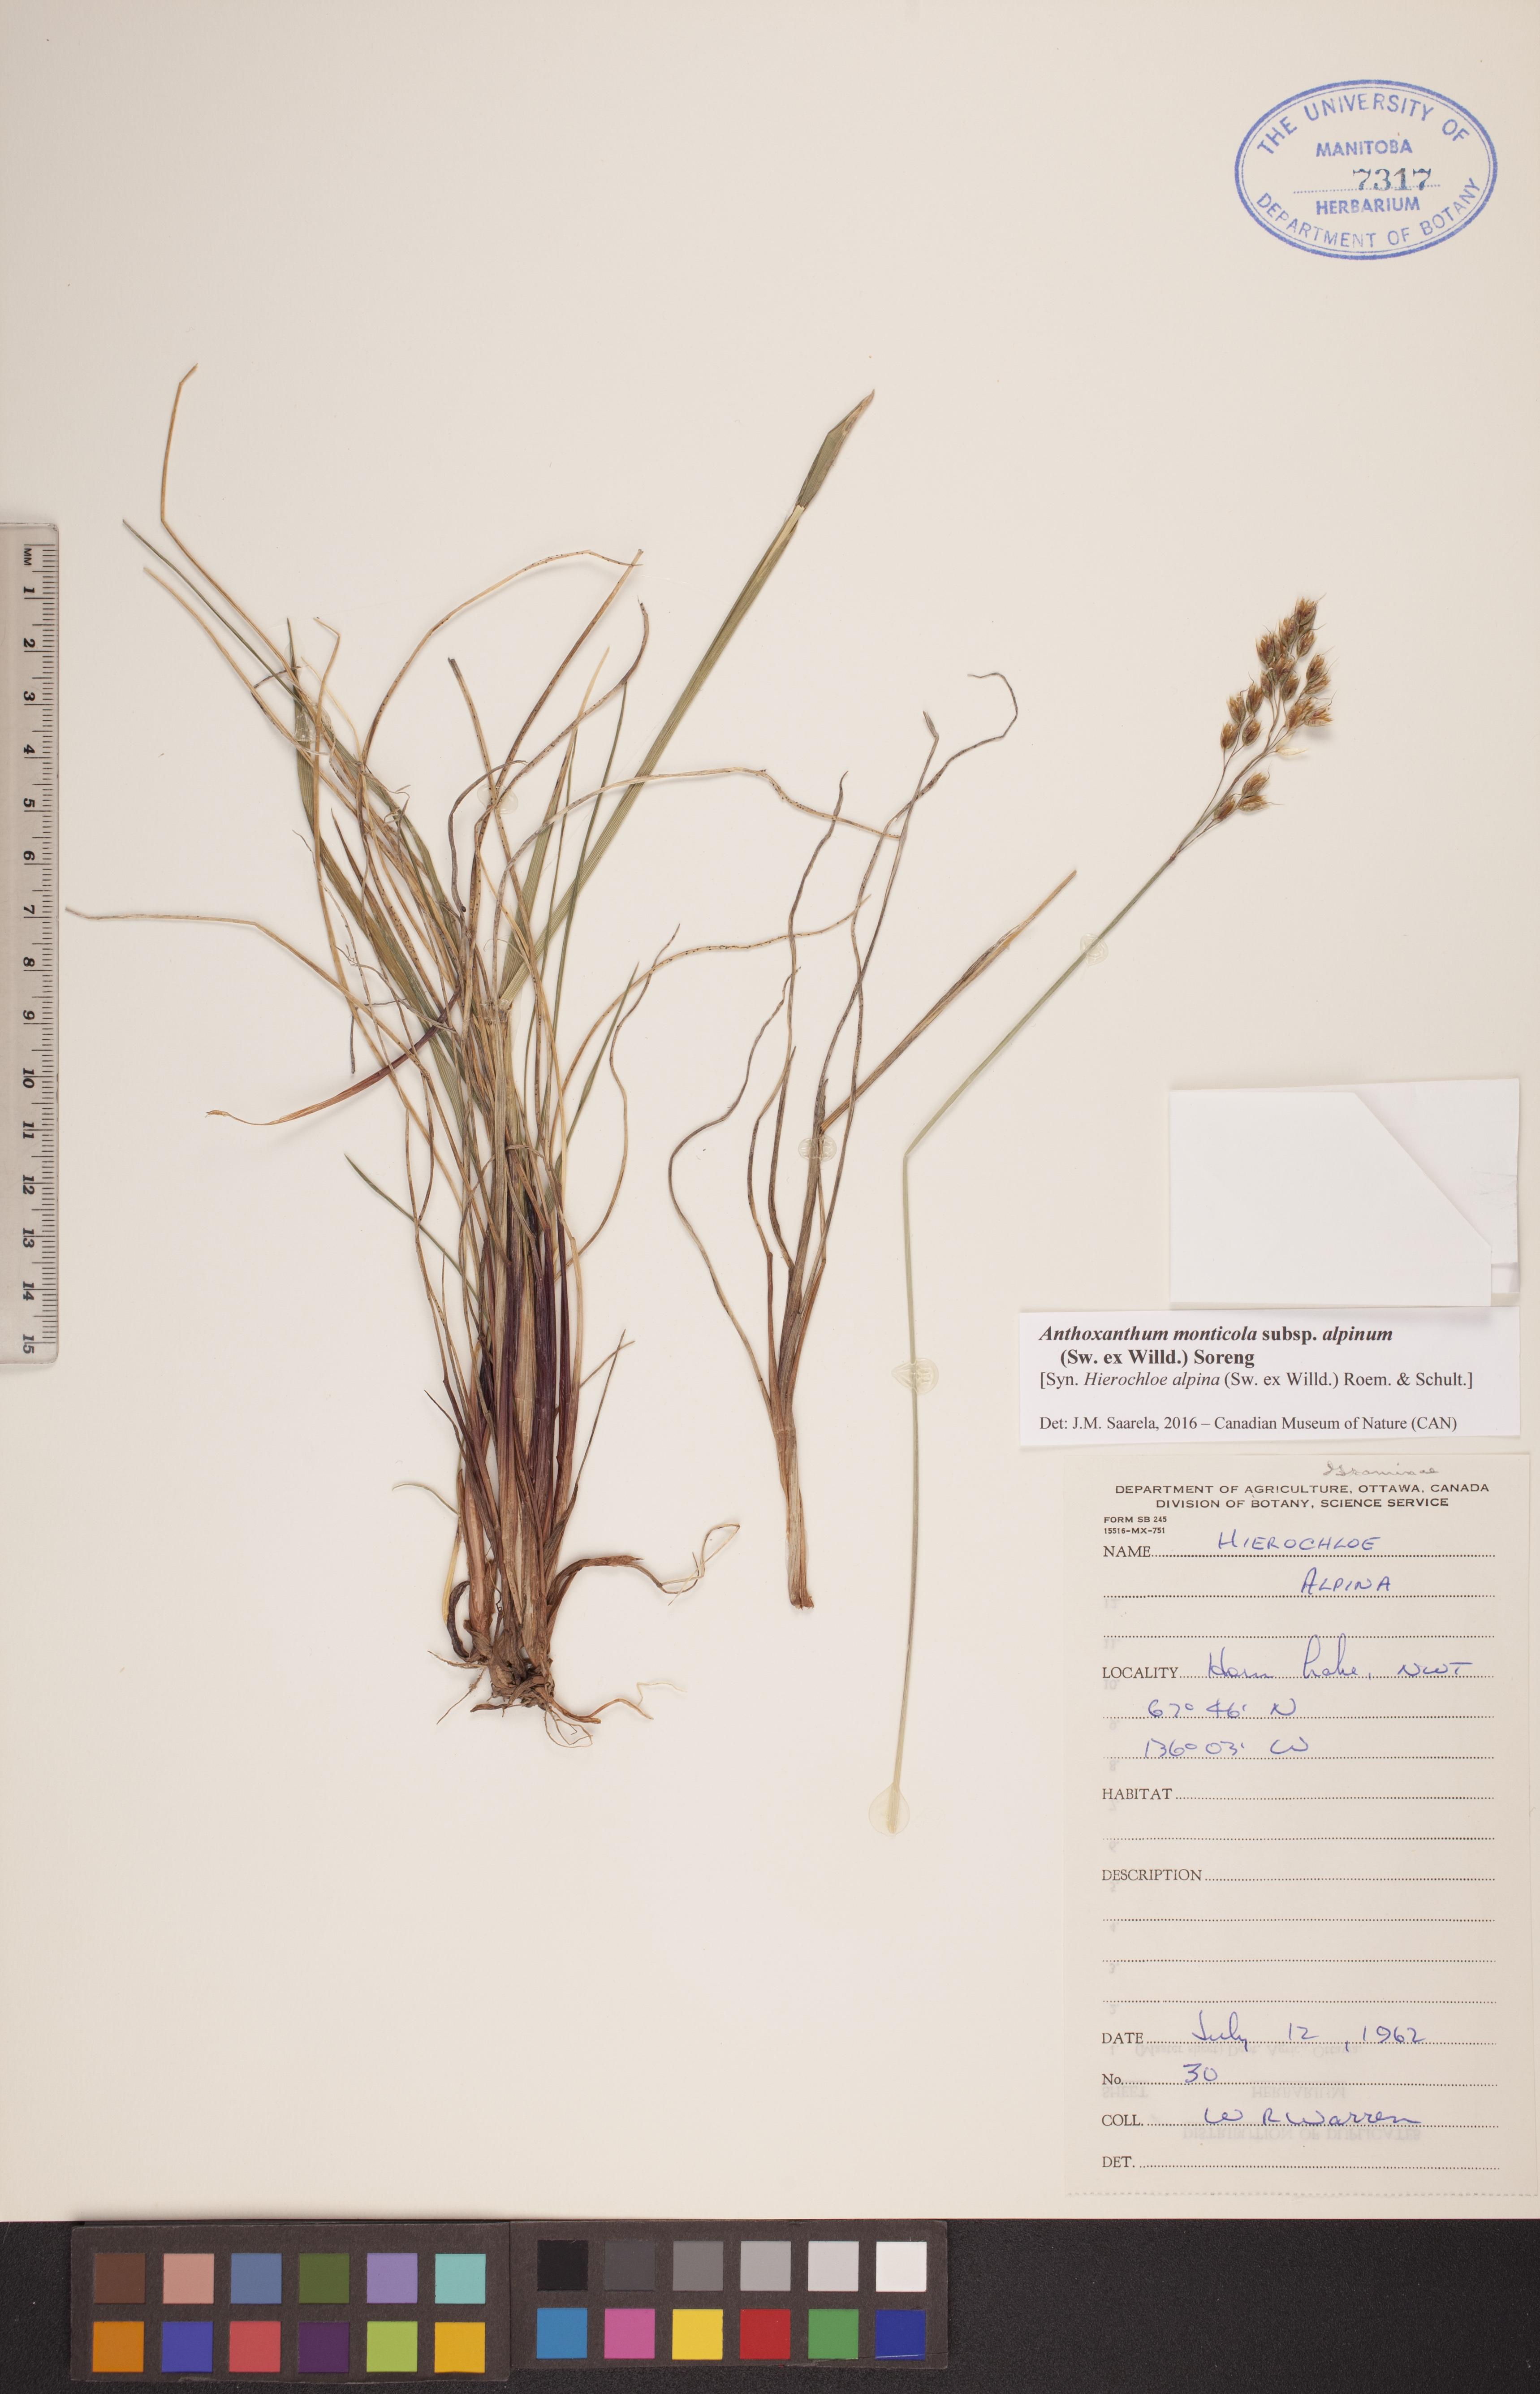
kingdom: Plantae
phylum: Tracheophyta
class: Liliopsida
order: Poales
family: Poaceae
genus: Anthoxanthum
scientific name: Anthoxanthum monticola
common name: Alpine sweetgrass
